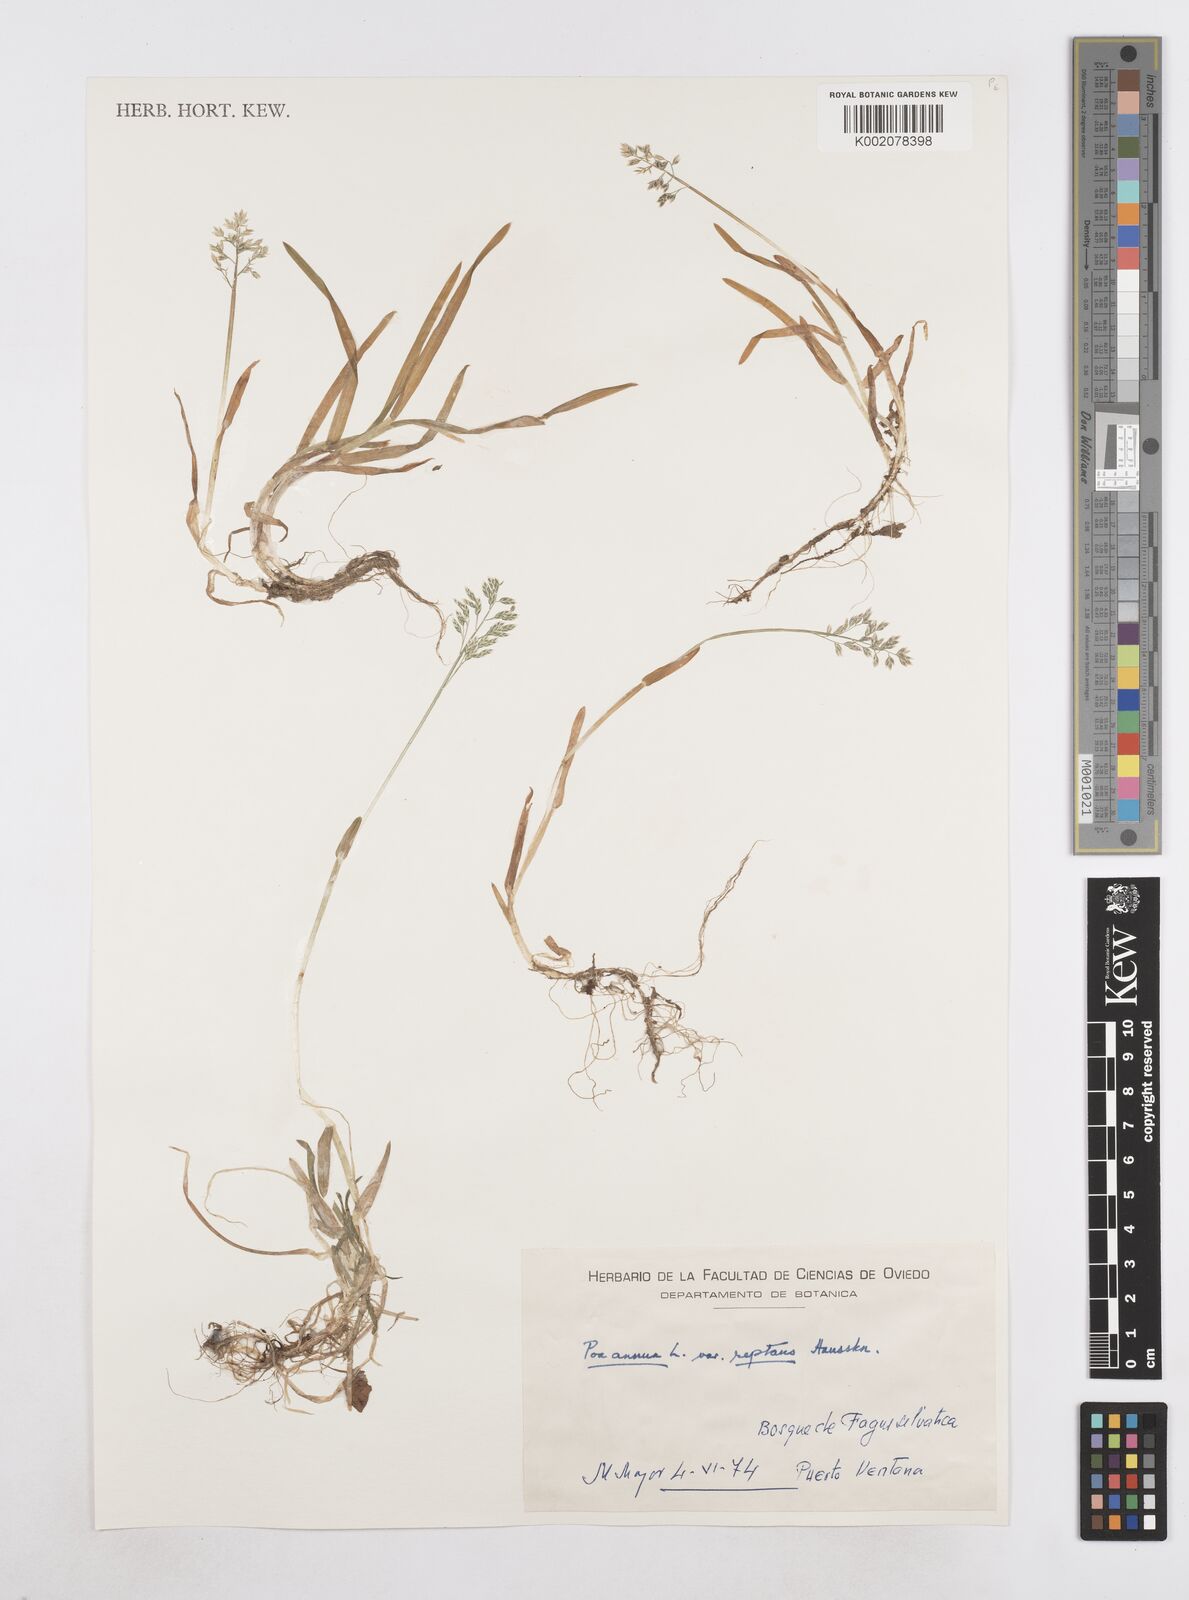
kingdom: Plantae
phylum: Tracheophyta
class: Liliopsida
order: Poales
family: Poaceae
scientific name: Poaceae
